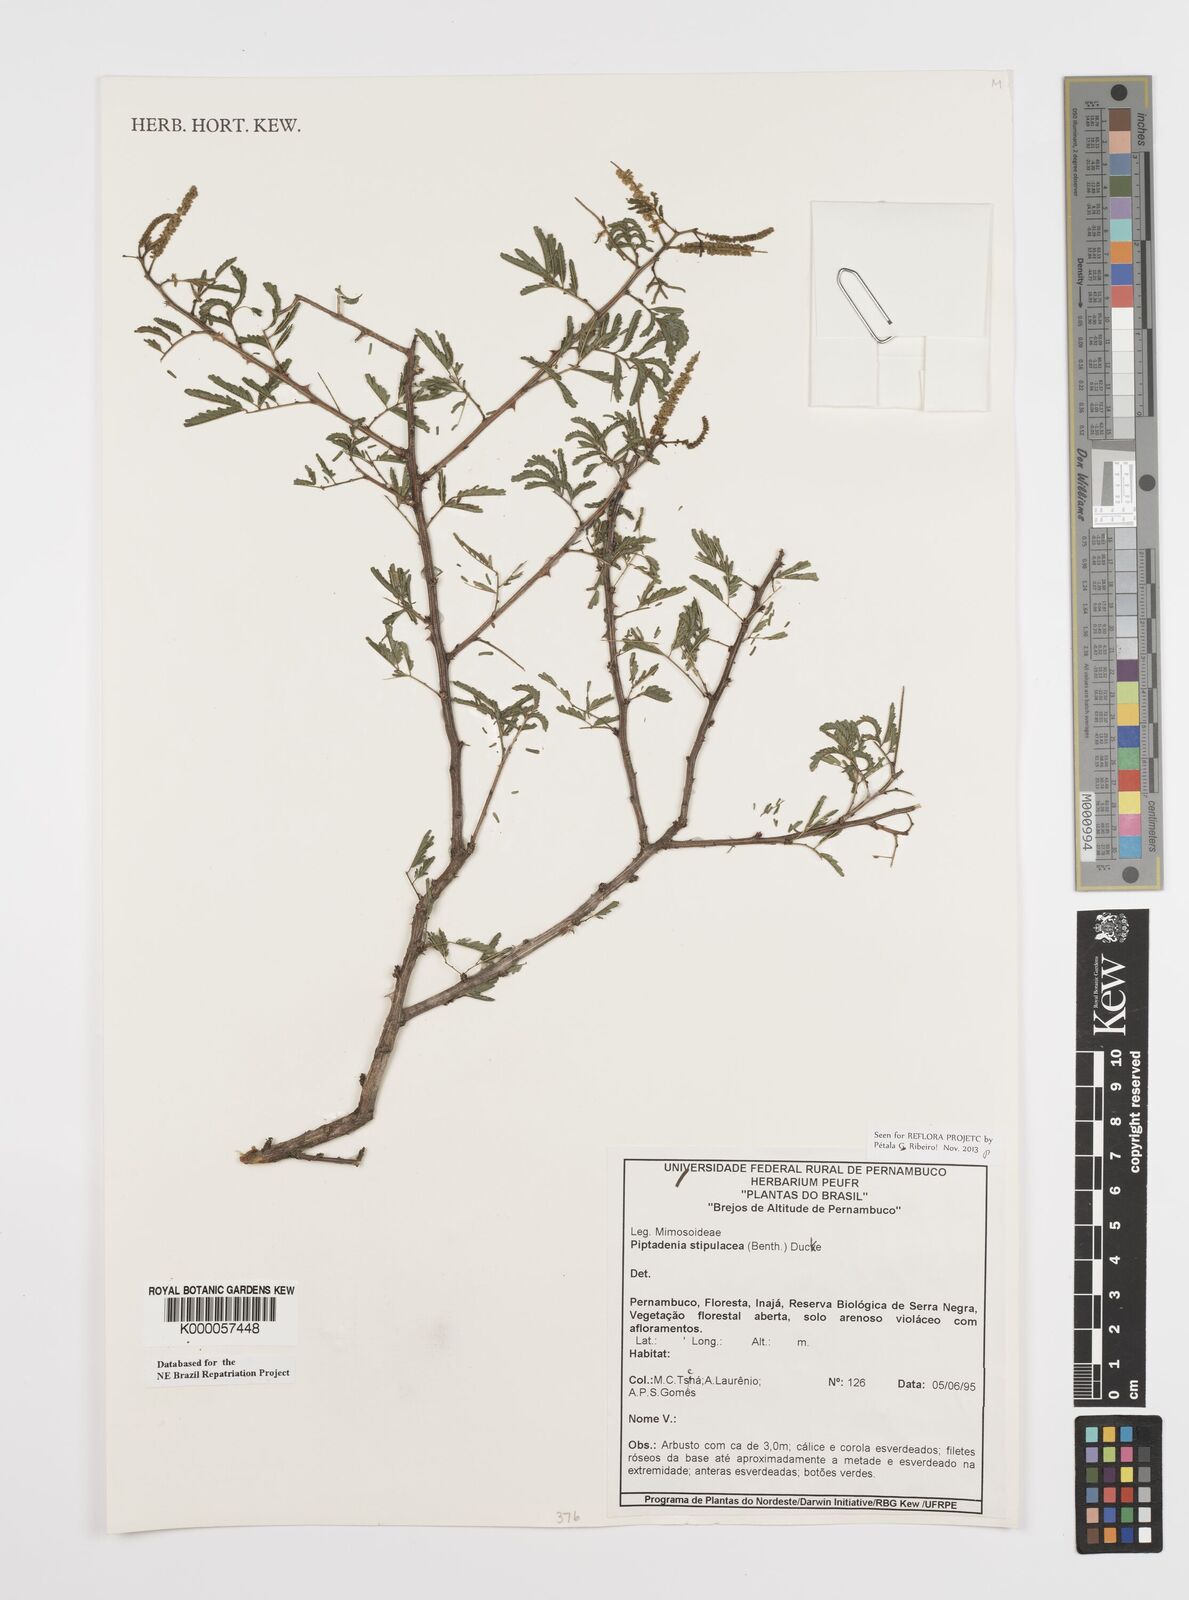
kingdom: Plantae
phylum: Tracheophyta
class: Magnoliopsida
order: Fabales
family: Fabaceae
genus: Piptadenia
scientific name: Piptadenia retusa
